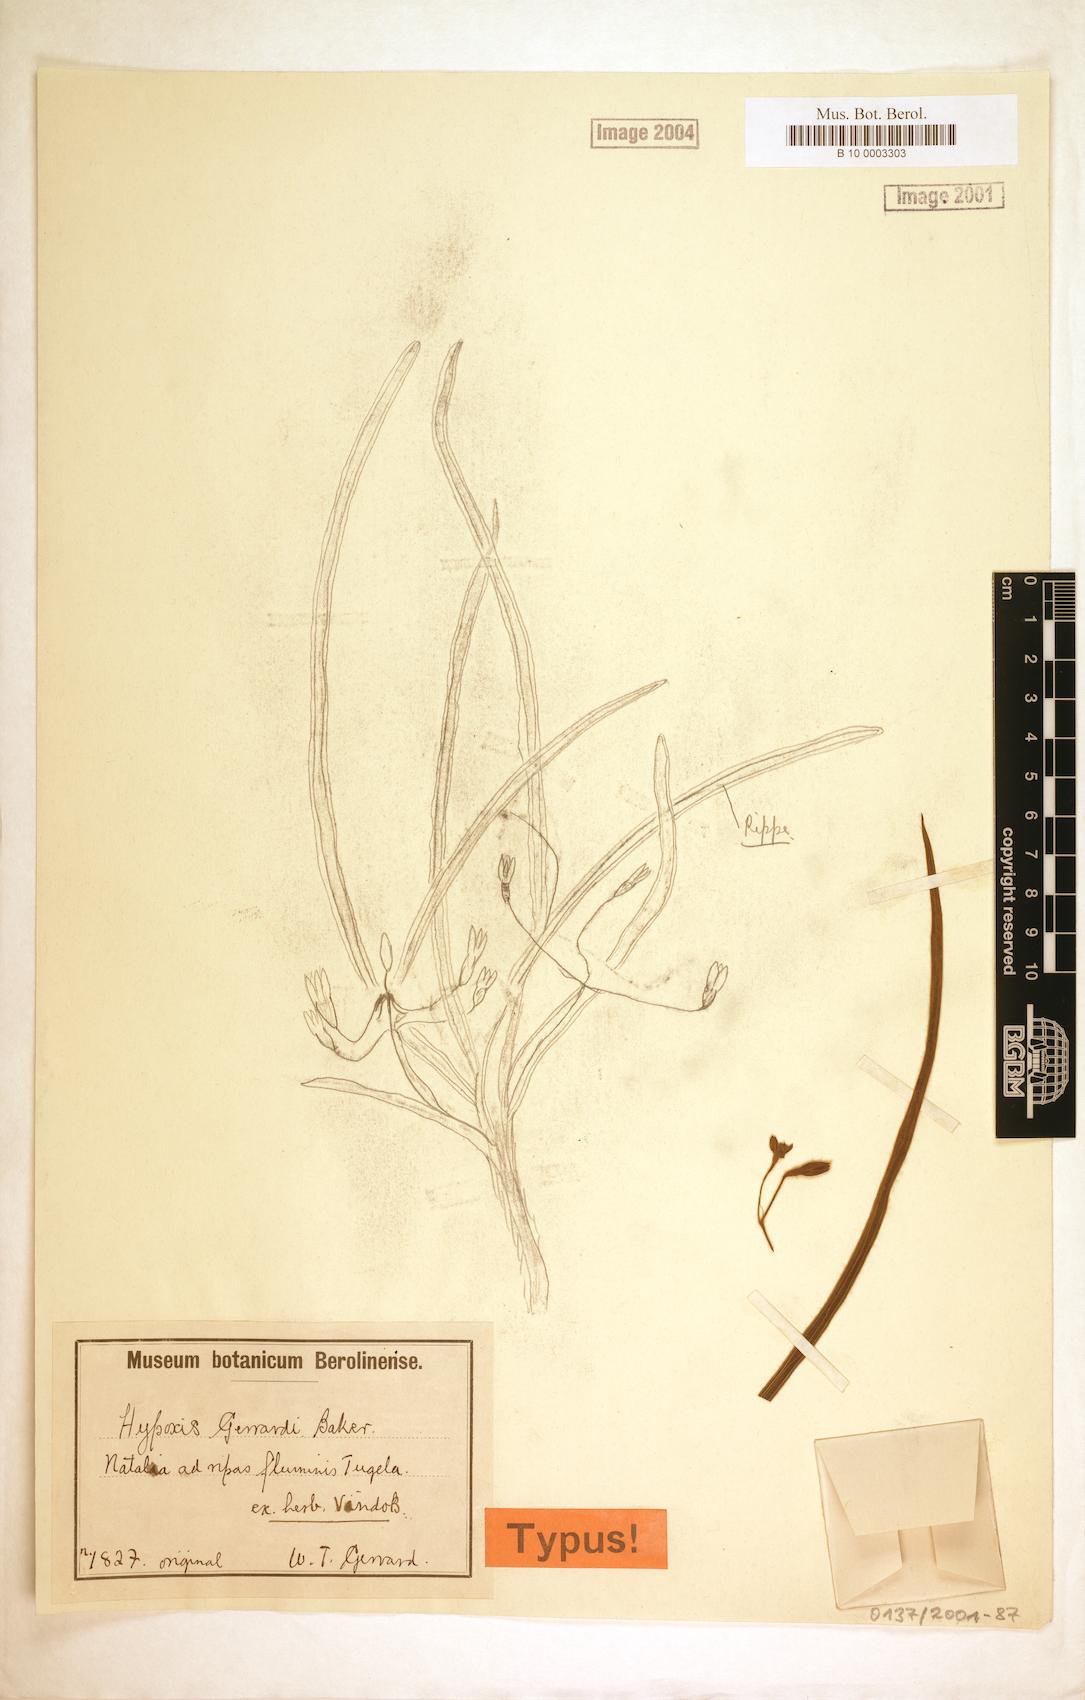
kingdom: Plantae
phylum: Tracheophyta
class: Liliopsida
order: Asparagales
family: Hypoxidaceae
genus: Hypoxis
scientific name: Hypoxis gerrardii
